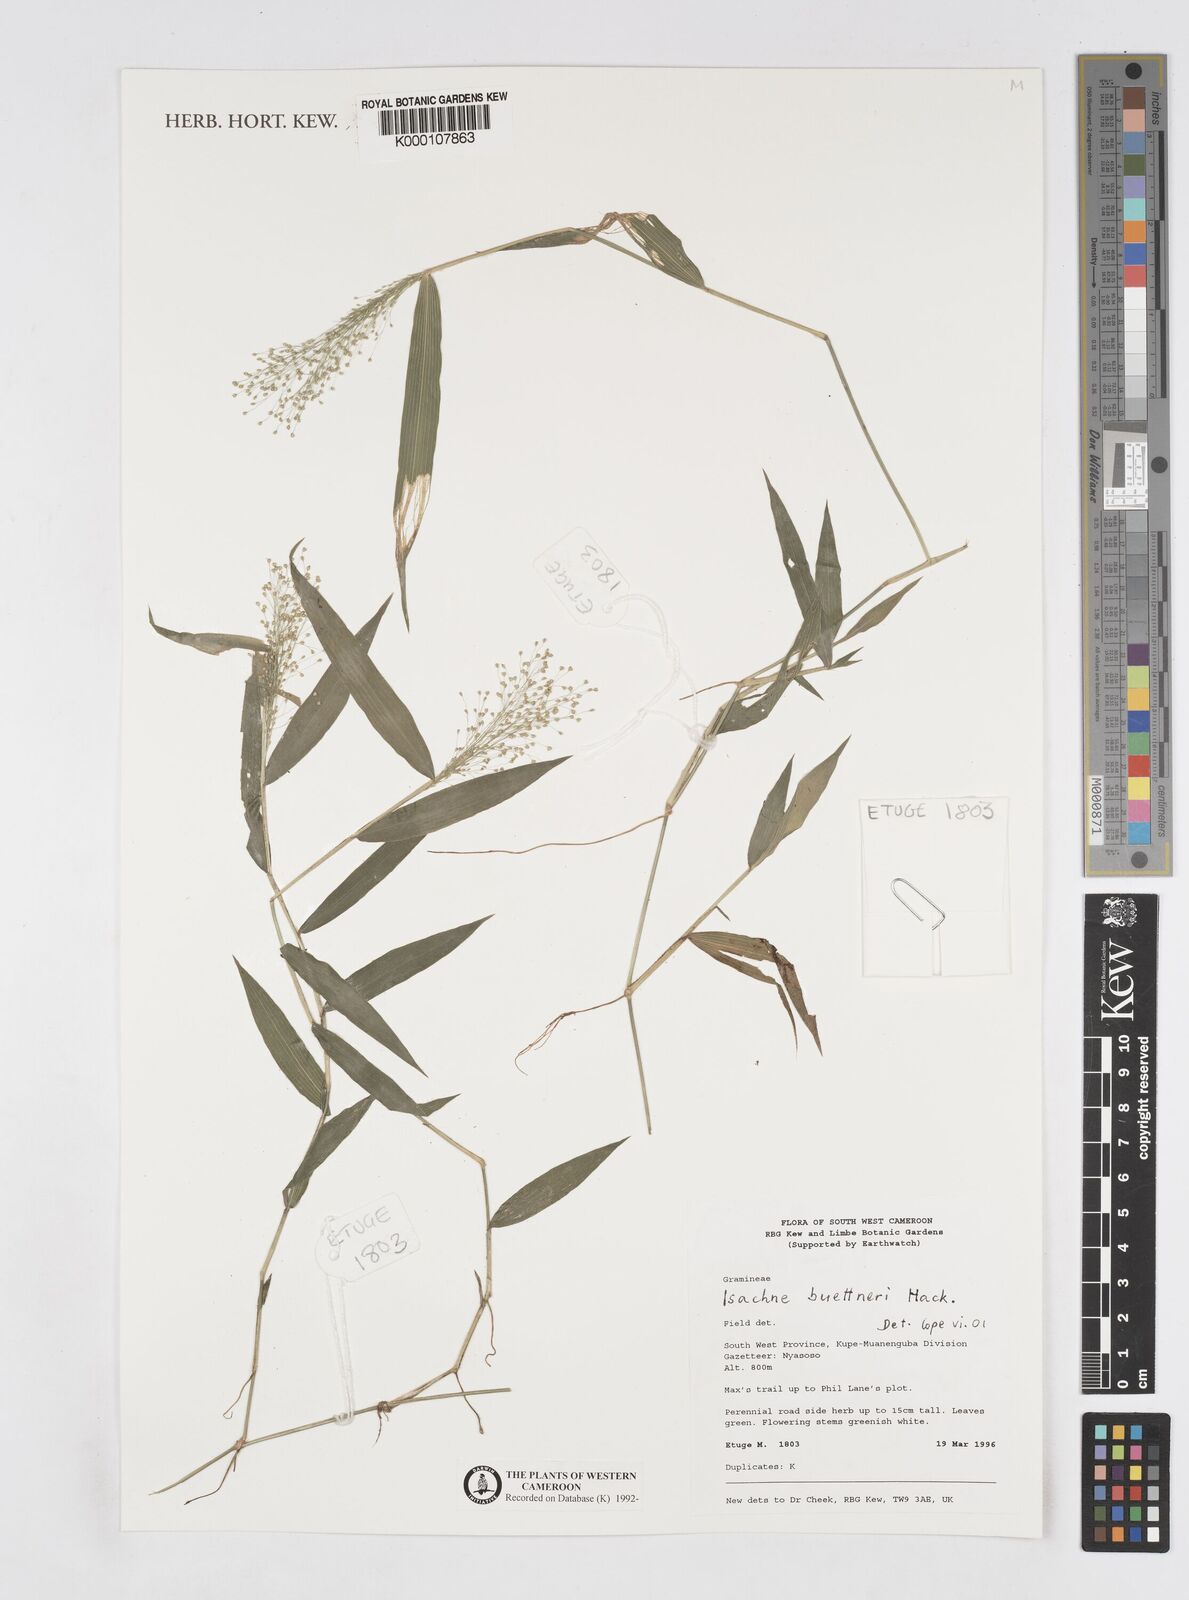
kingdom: Plantae
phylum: Tracheophyta
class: Liliopsida
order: Poales
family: Poaceae
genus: Isachne
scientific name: Isachne albens
